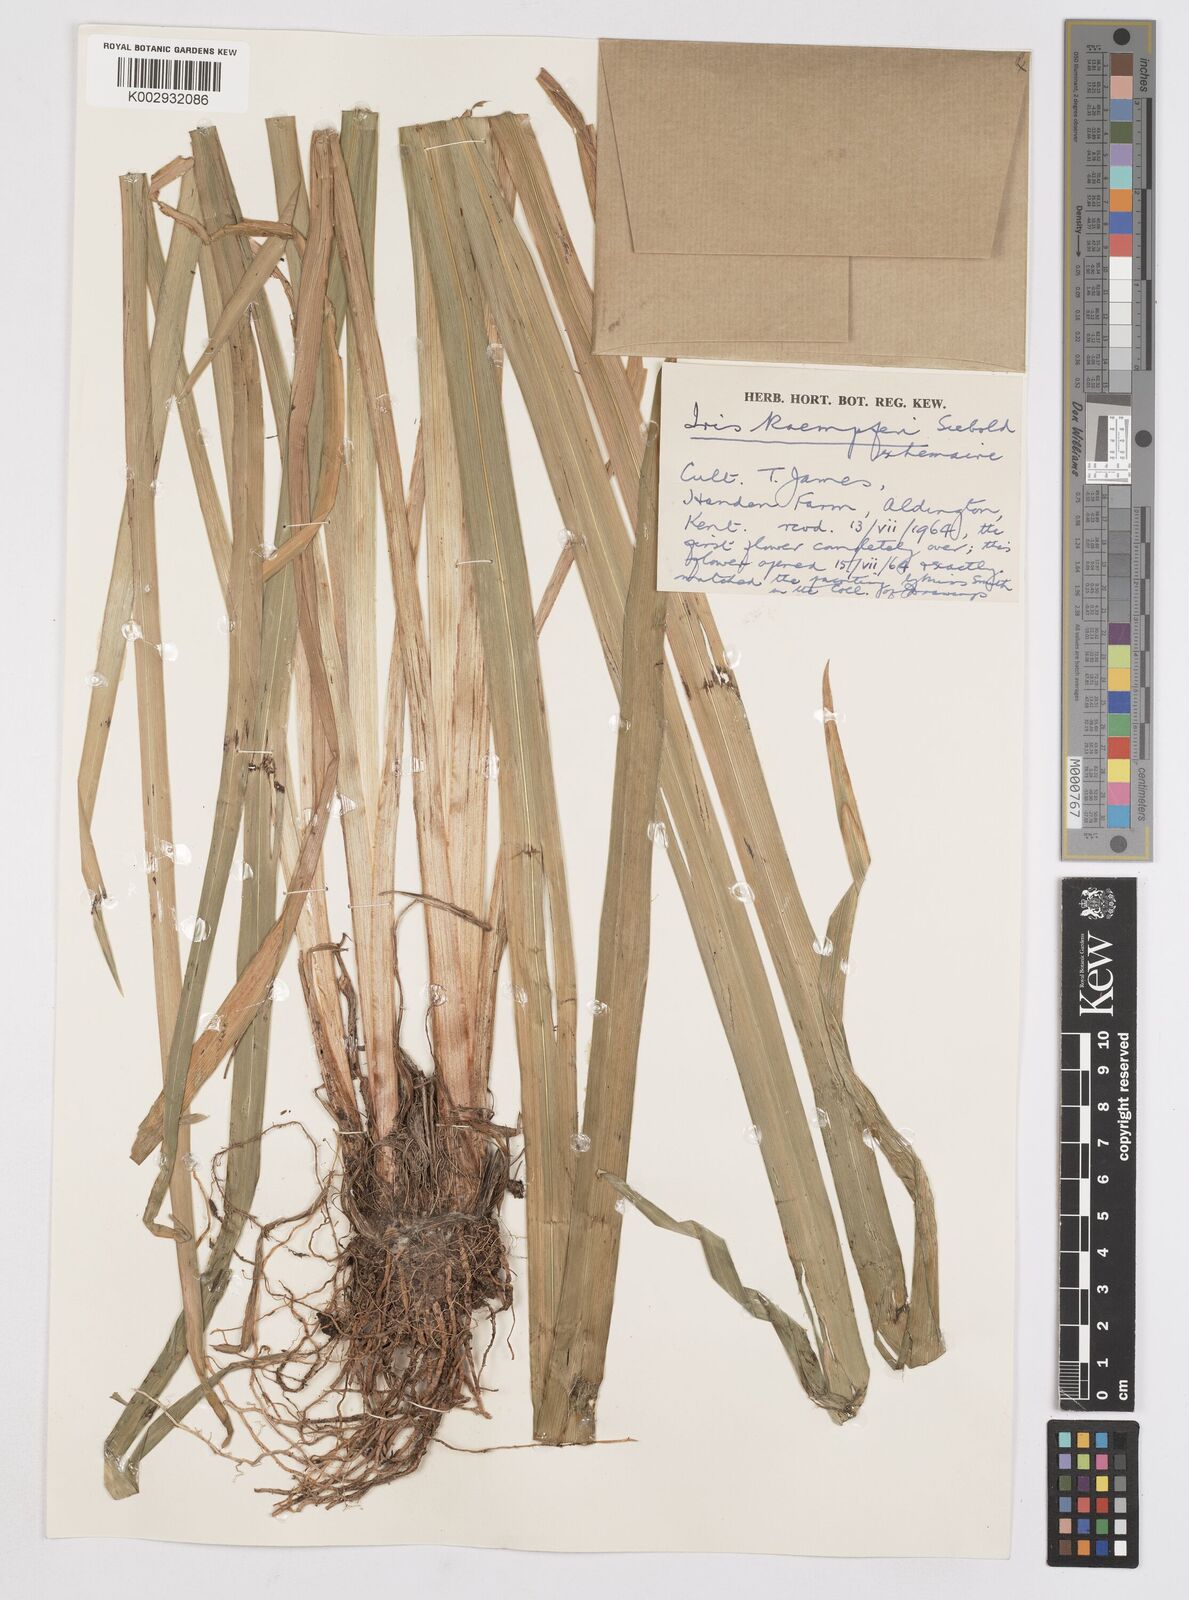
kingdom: Plantae
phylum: Tracheophyta
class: Liliopsida
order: Asparagales
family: Iridaceae
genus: Iris
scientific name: Iris ensata
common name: Beaked iris
